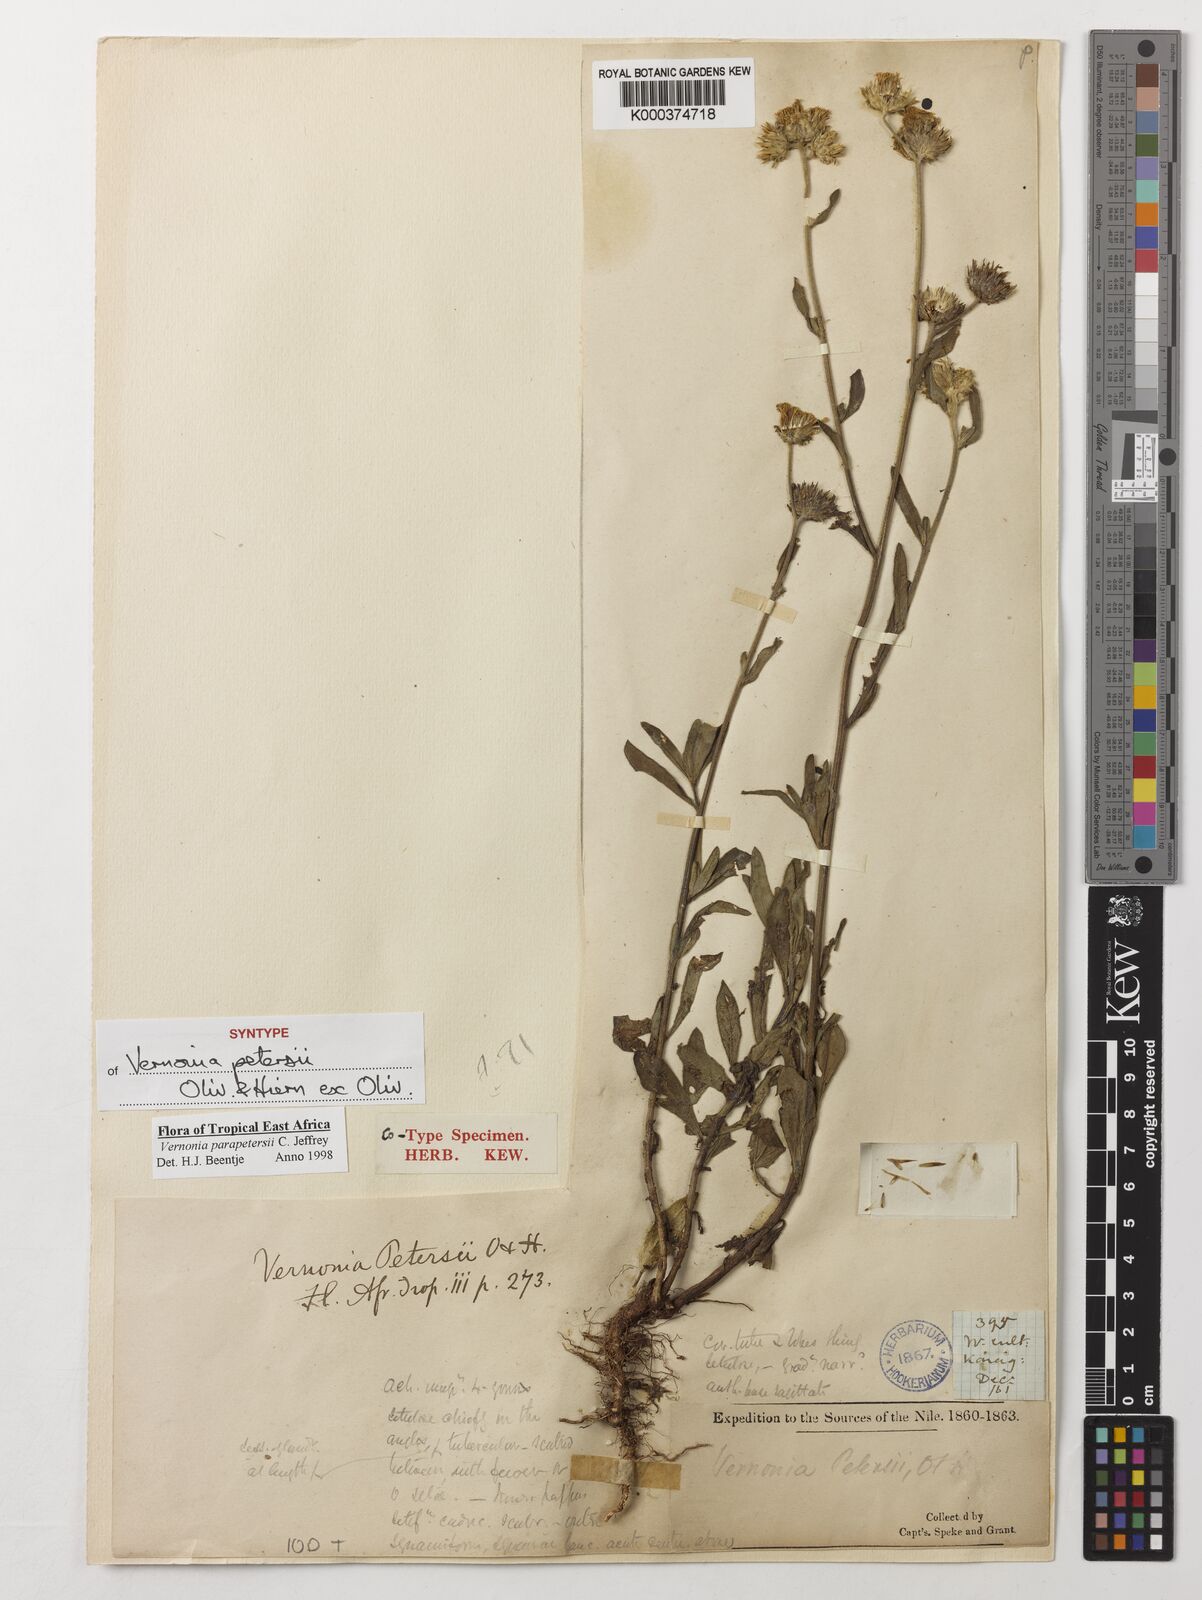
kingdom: Plantae
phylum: Tracheophyta
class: Magnoliopsida
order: Asterales
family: Asteraceae
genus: Vernonia
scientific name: Vernonia parapetersii
